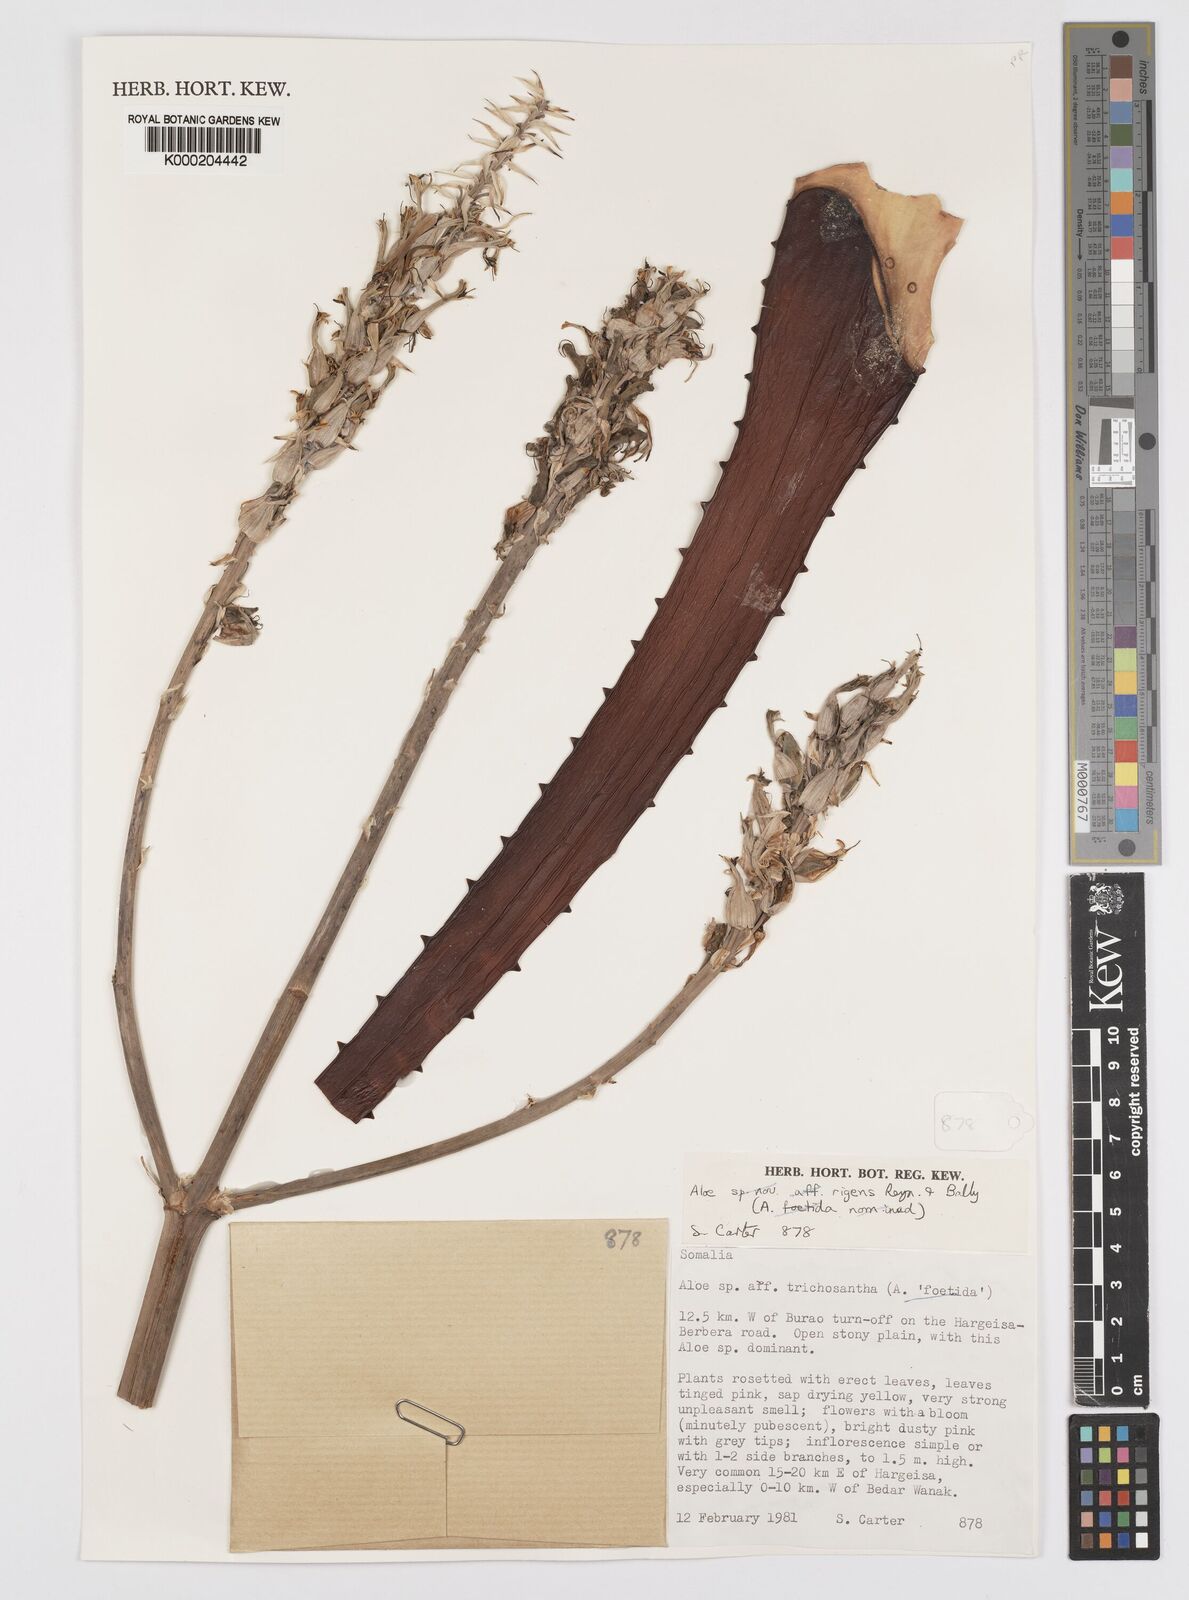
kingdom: Plantae
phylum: Tracheophyta
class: Liliopsida
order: Asparagales
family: Asphodelaceae
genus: Aloe
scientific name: Aloe rigens
